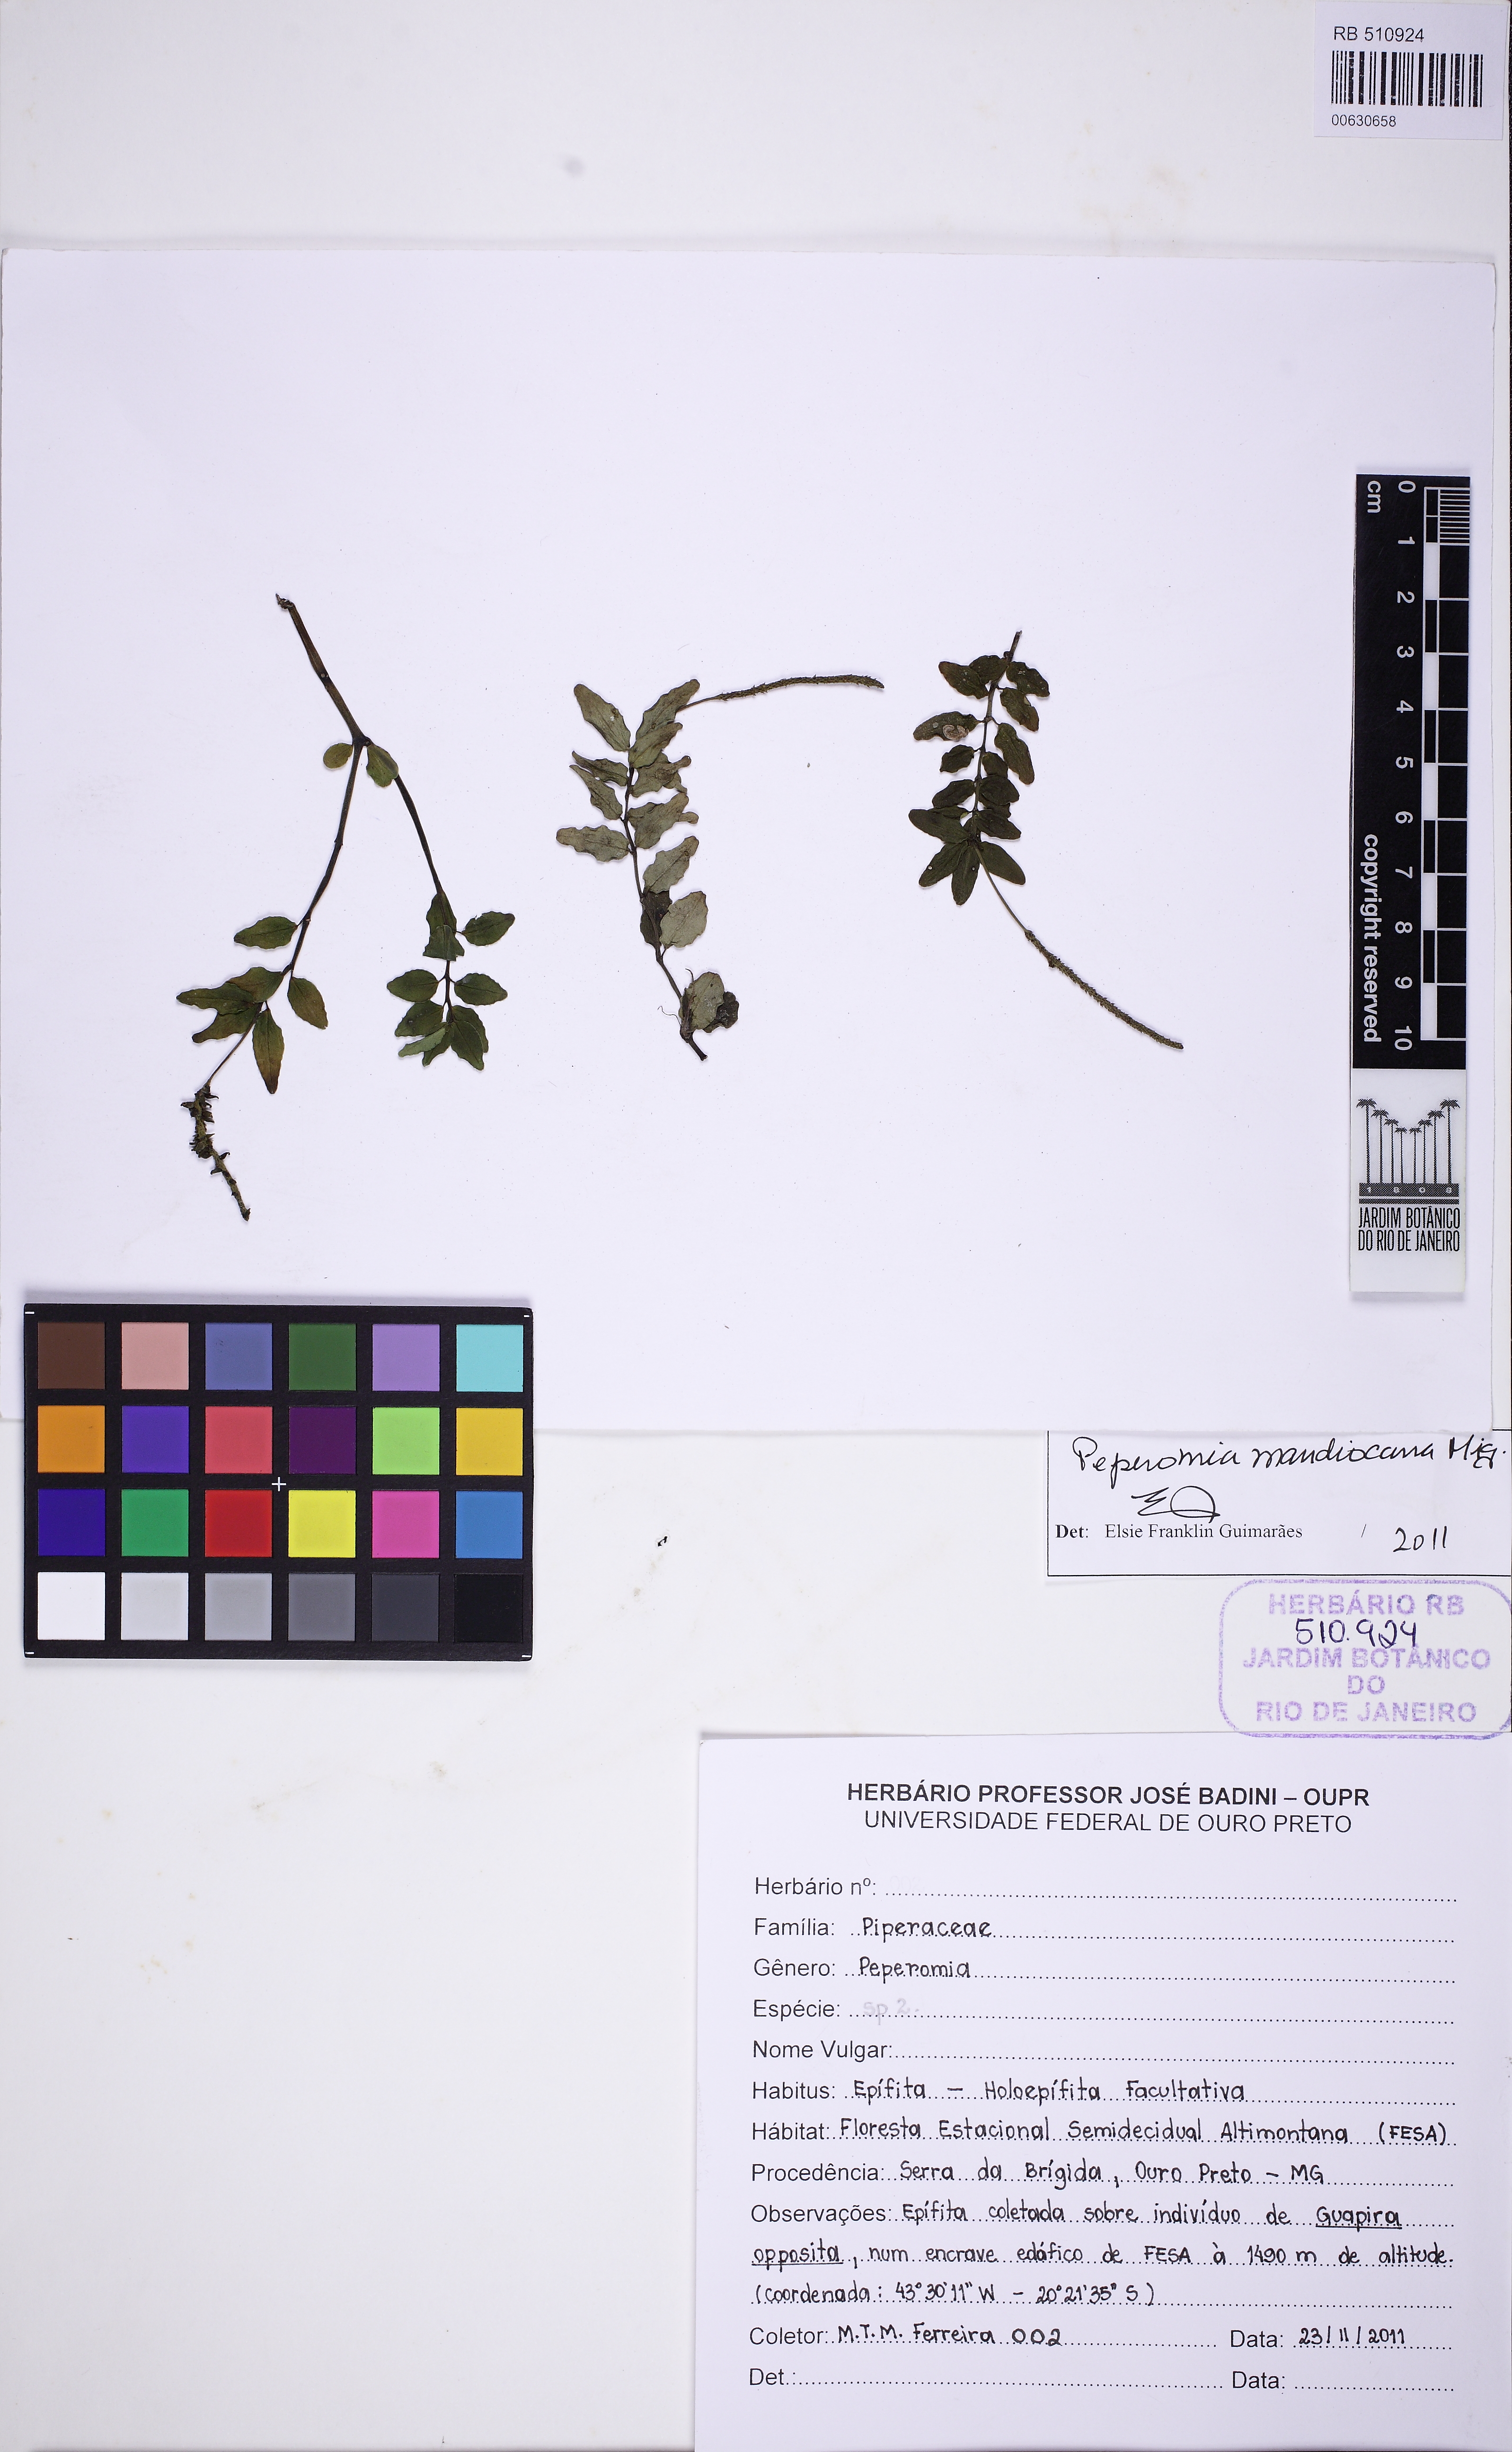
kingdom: Plantae
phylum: Tracheophyta
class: Magnoliopsida
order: Piperales
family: Piperaceae
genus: Peperomia
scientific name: Peperomia mandioccana
